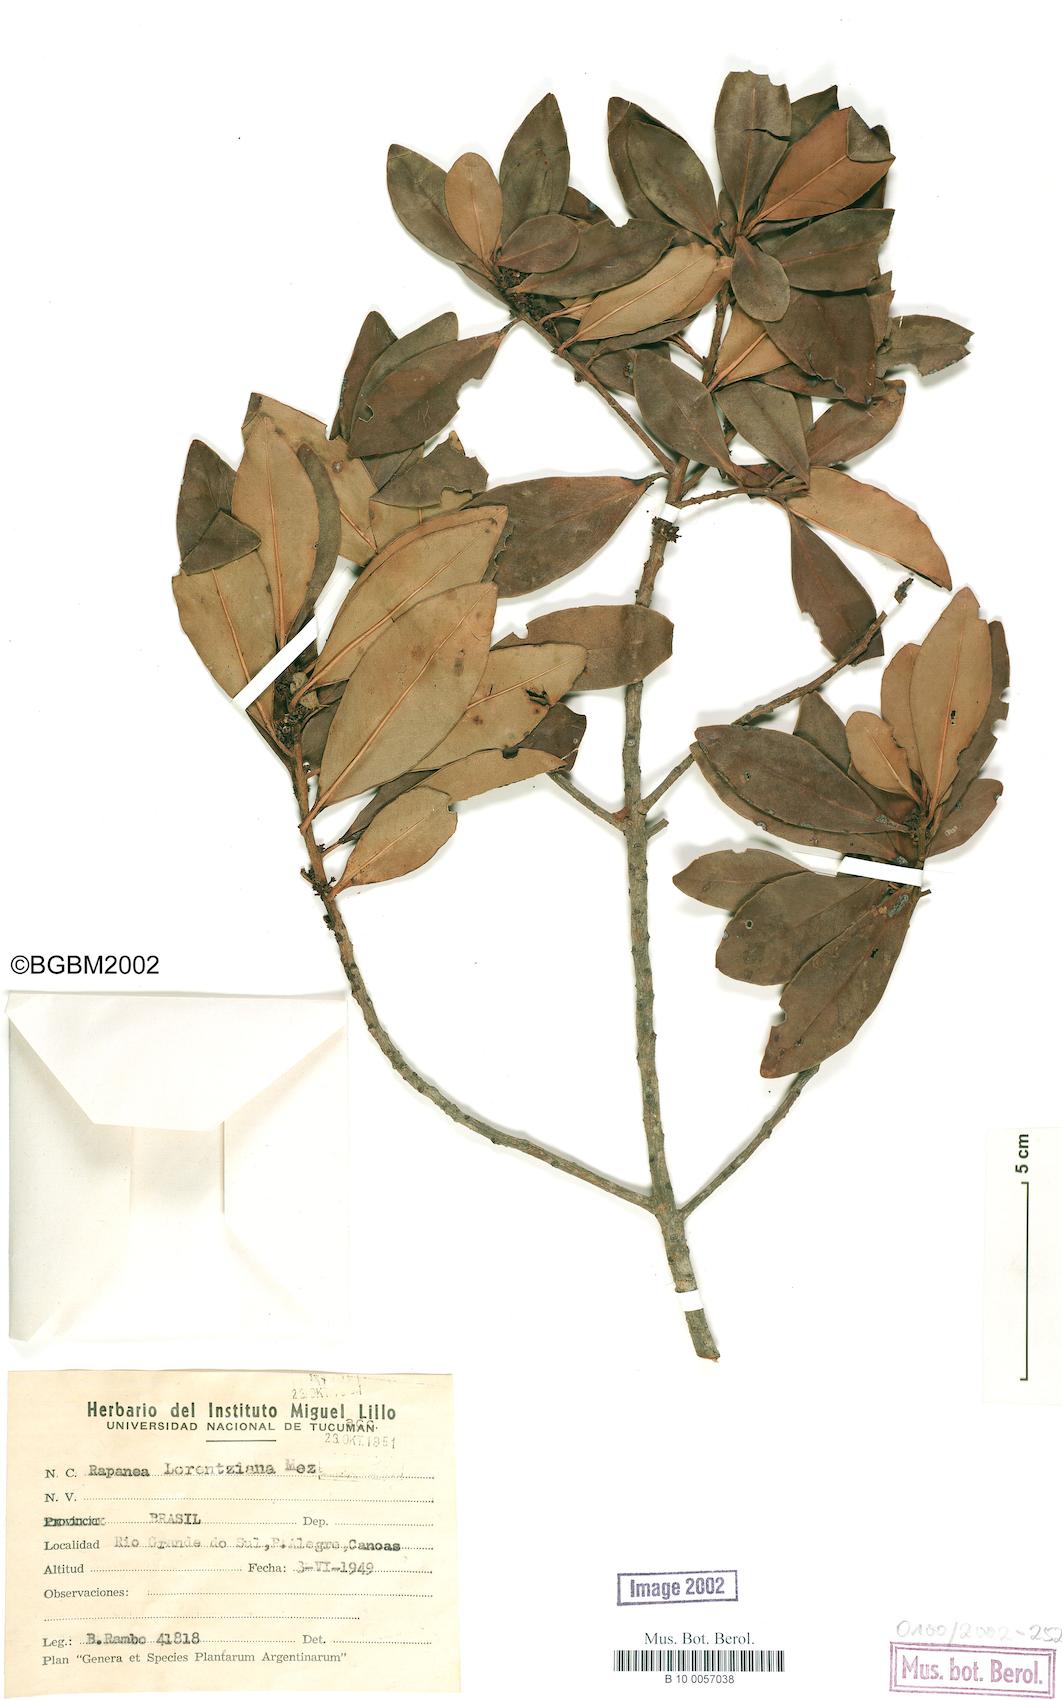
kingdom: Plantae
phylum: Tracheophyta
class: Magnoliopsida
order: Ericales
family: Primulaceae
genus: Myrsine
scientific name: Myrsine lorentziana
